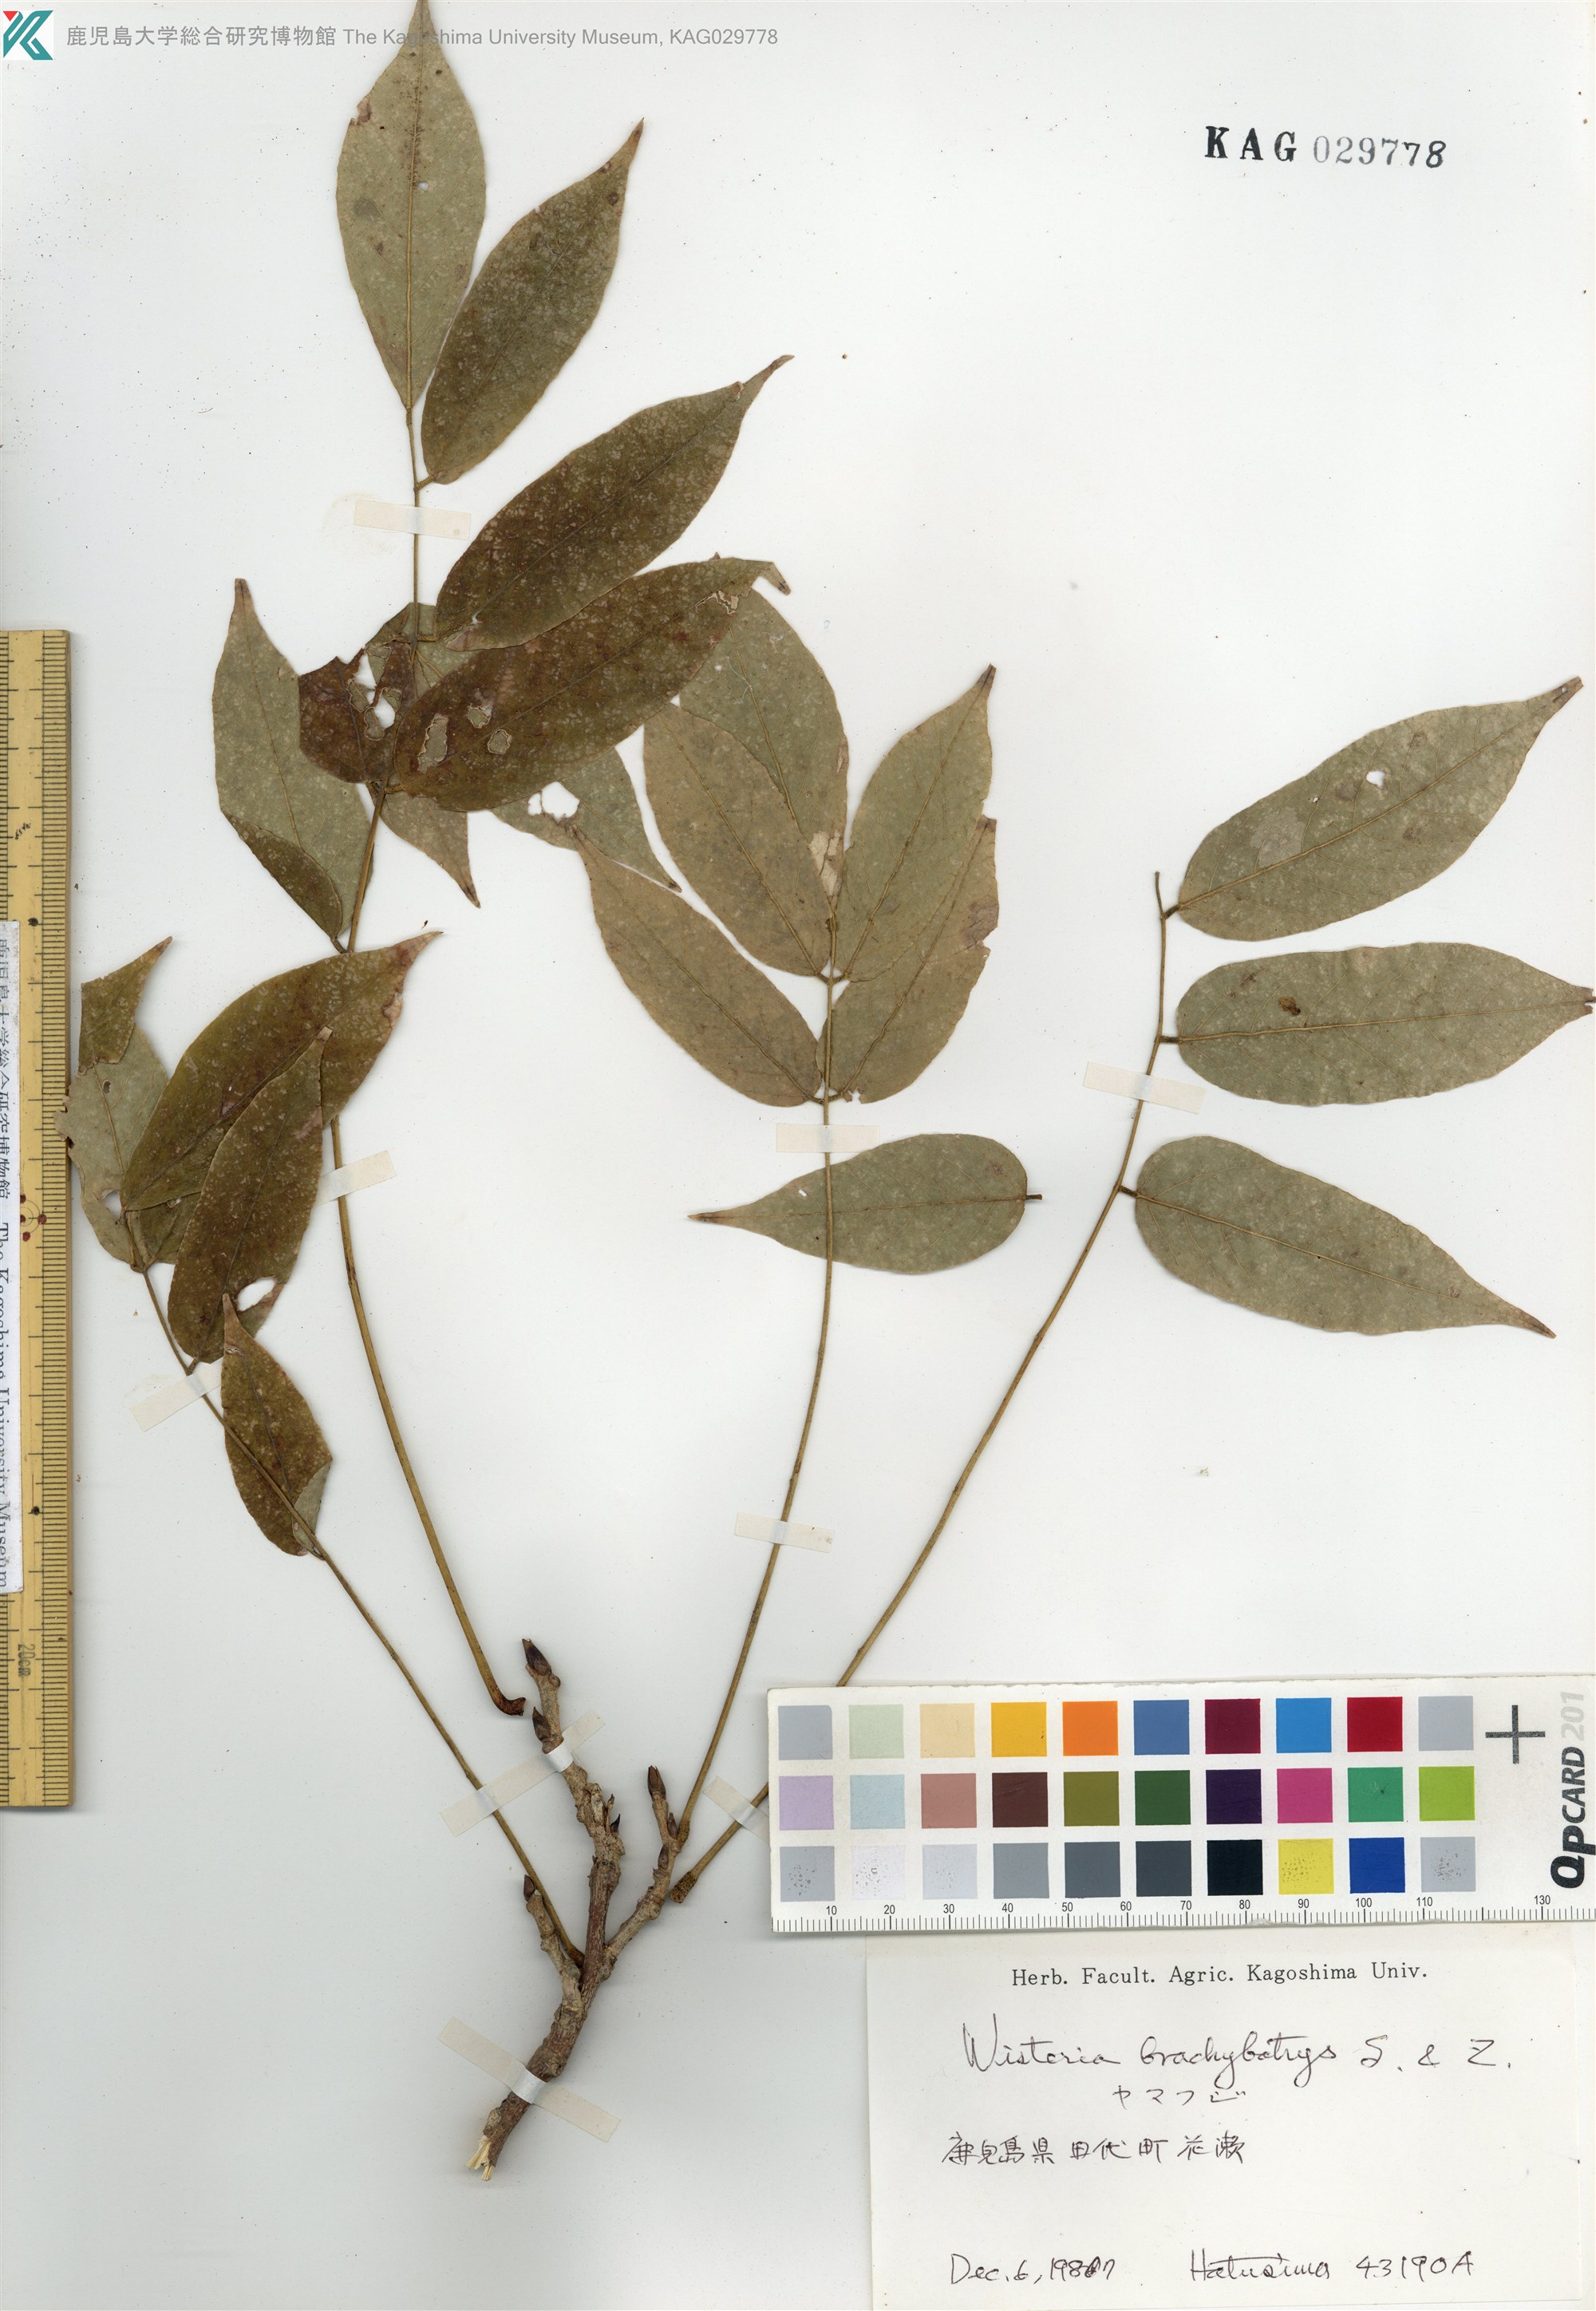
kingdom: Plantae
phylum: Tracheophyta
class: Magnoliopsida
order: Fabales
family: Fabaceae
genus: Wisteria
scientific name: Wisteria brachybotrys
